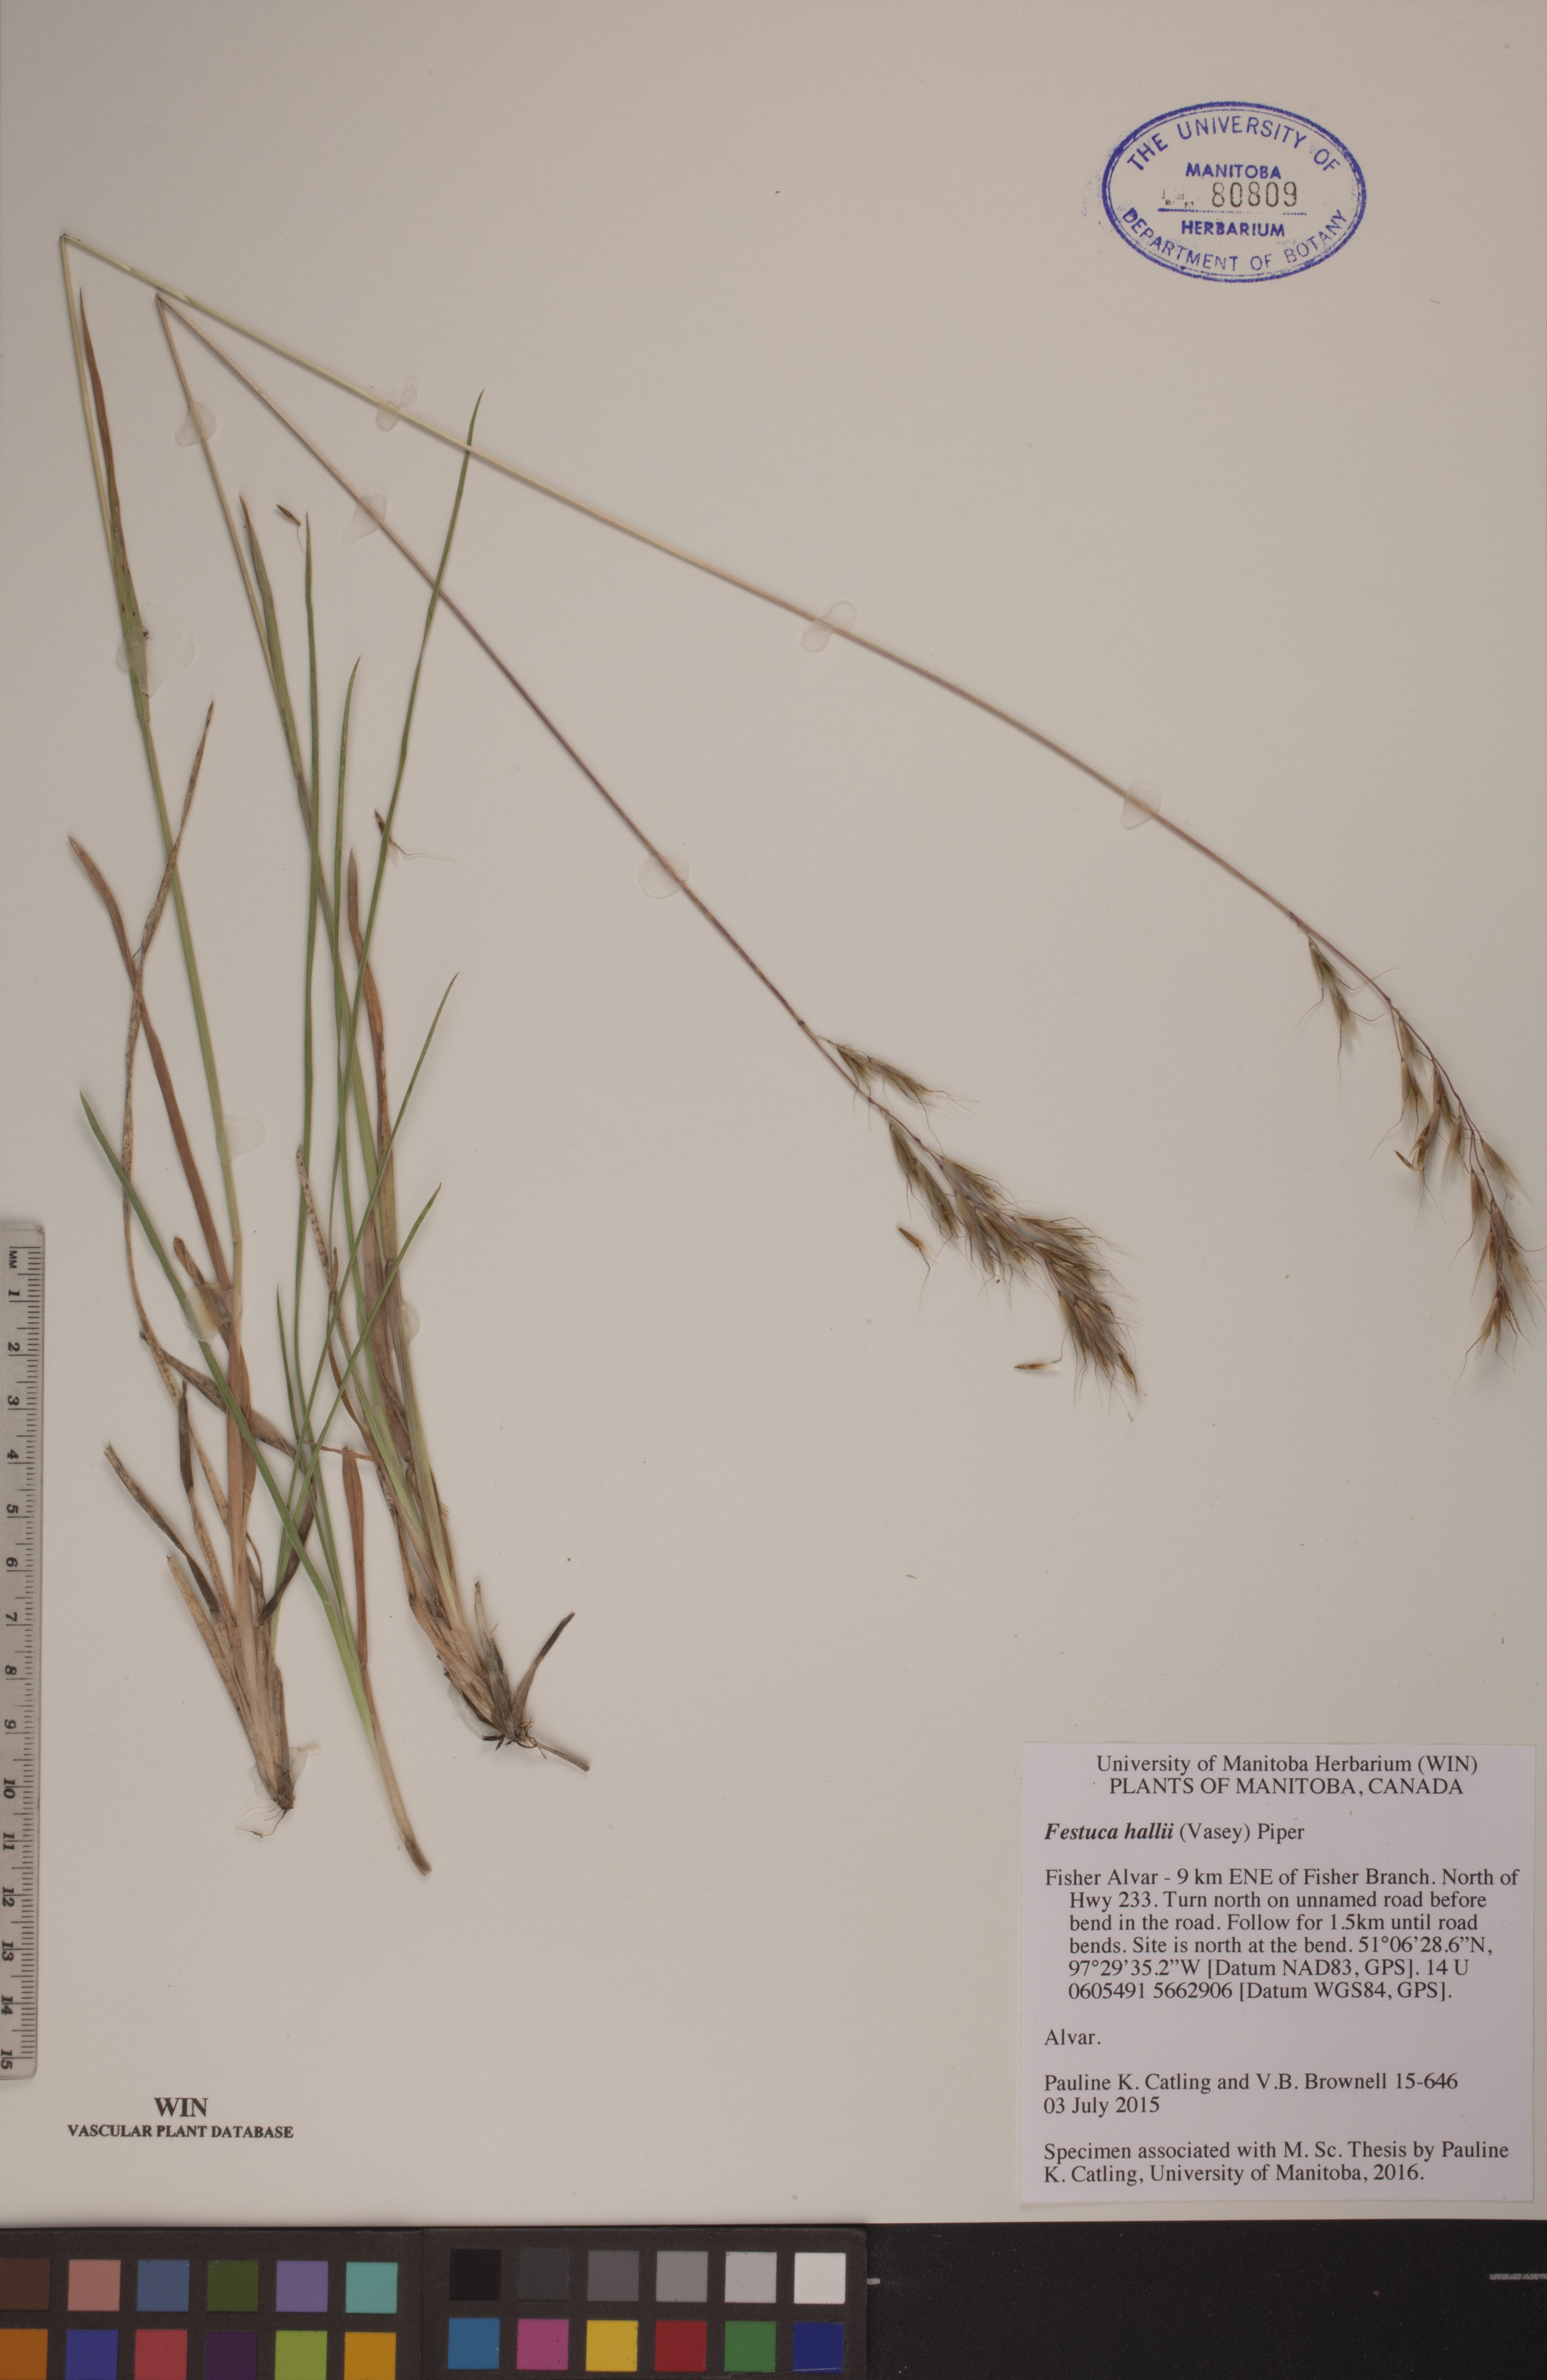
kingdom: Plantae
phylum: Tracheophyta
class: Liliopsida
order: Poales
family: Poaceae
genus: Festuca
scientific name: Festuca hallii
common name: Hall's fescue
